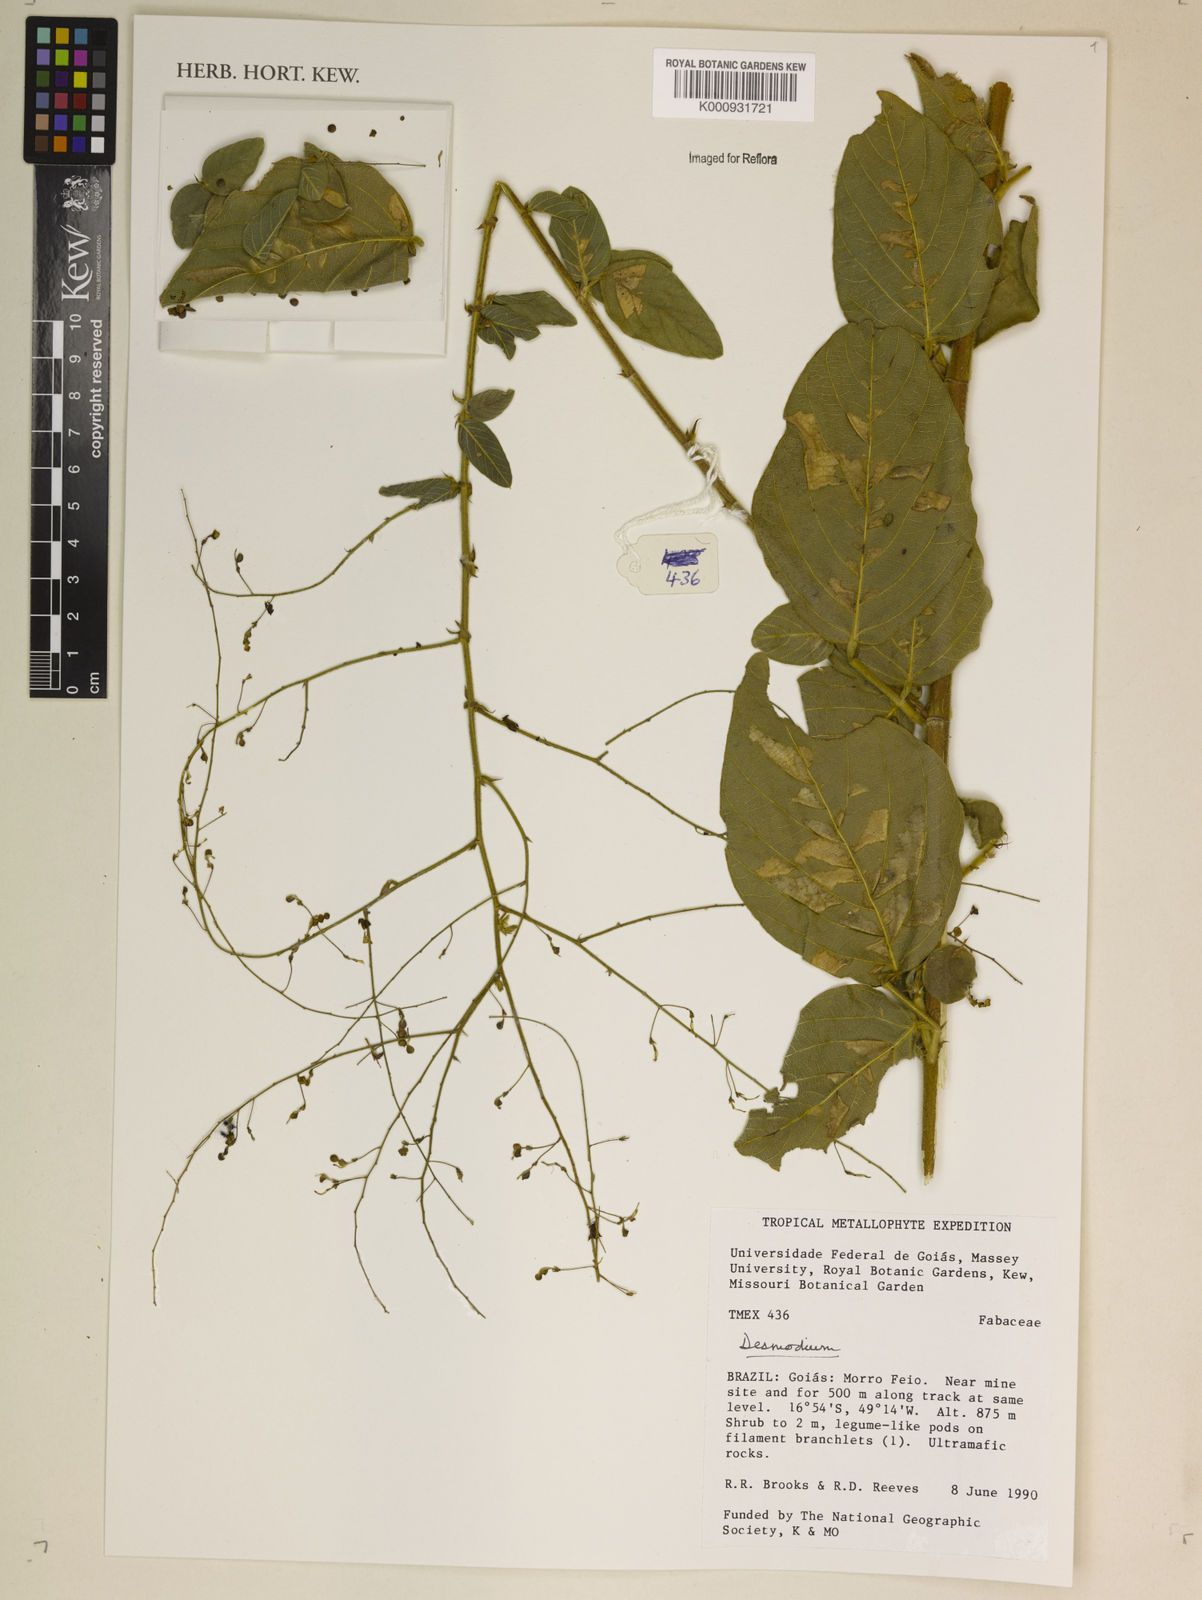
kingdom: Plantae
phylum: Tracheophyta
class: Magnoliopsida
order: Fabales
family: Fabaceae
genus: Desmodium
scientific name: Desmodium
